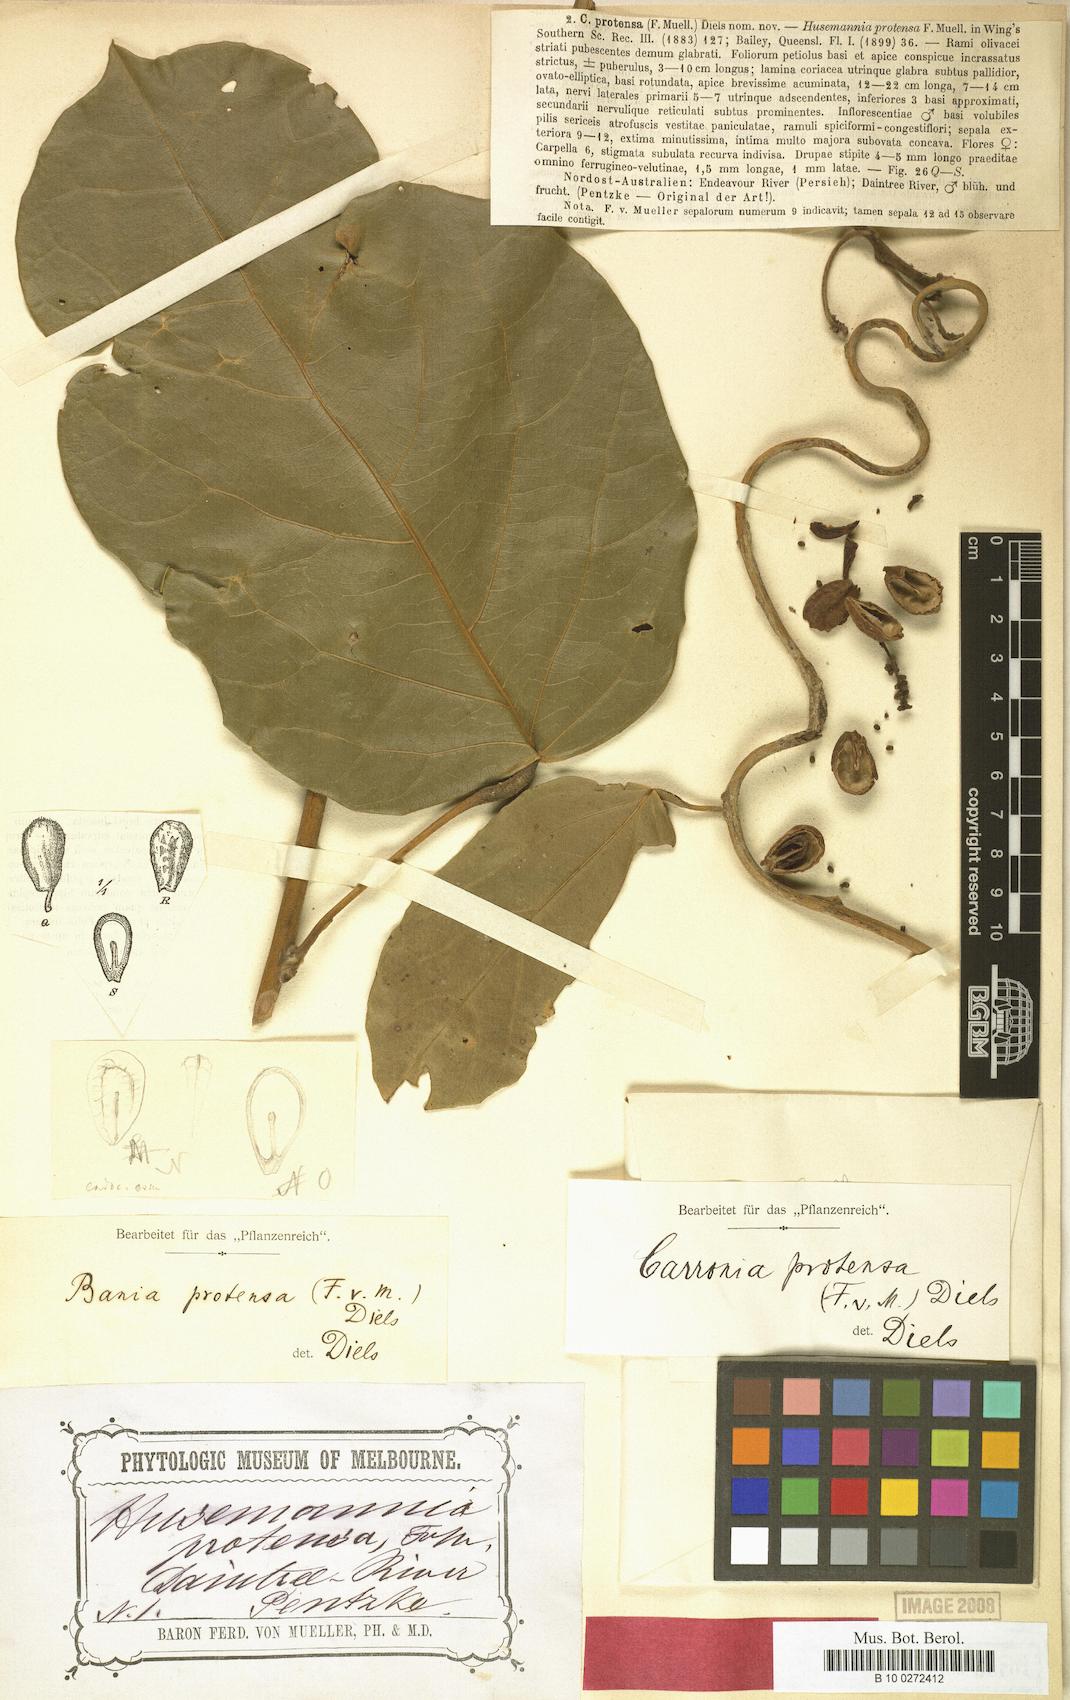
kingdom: Plantae
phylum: Tracheophyta
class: Magnoliopsida
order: Ranunculales
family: Menispermaceae
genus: Carronia
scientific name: Carronia protensa
